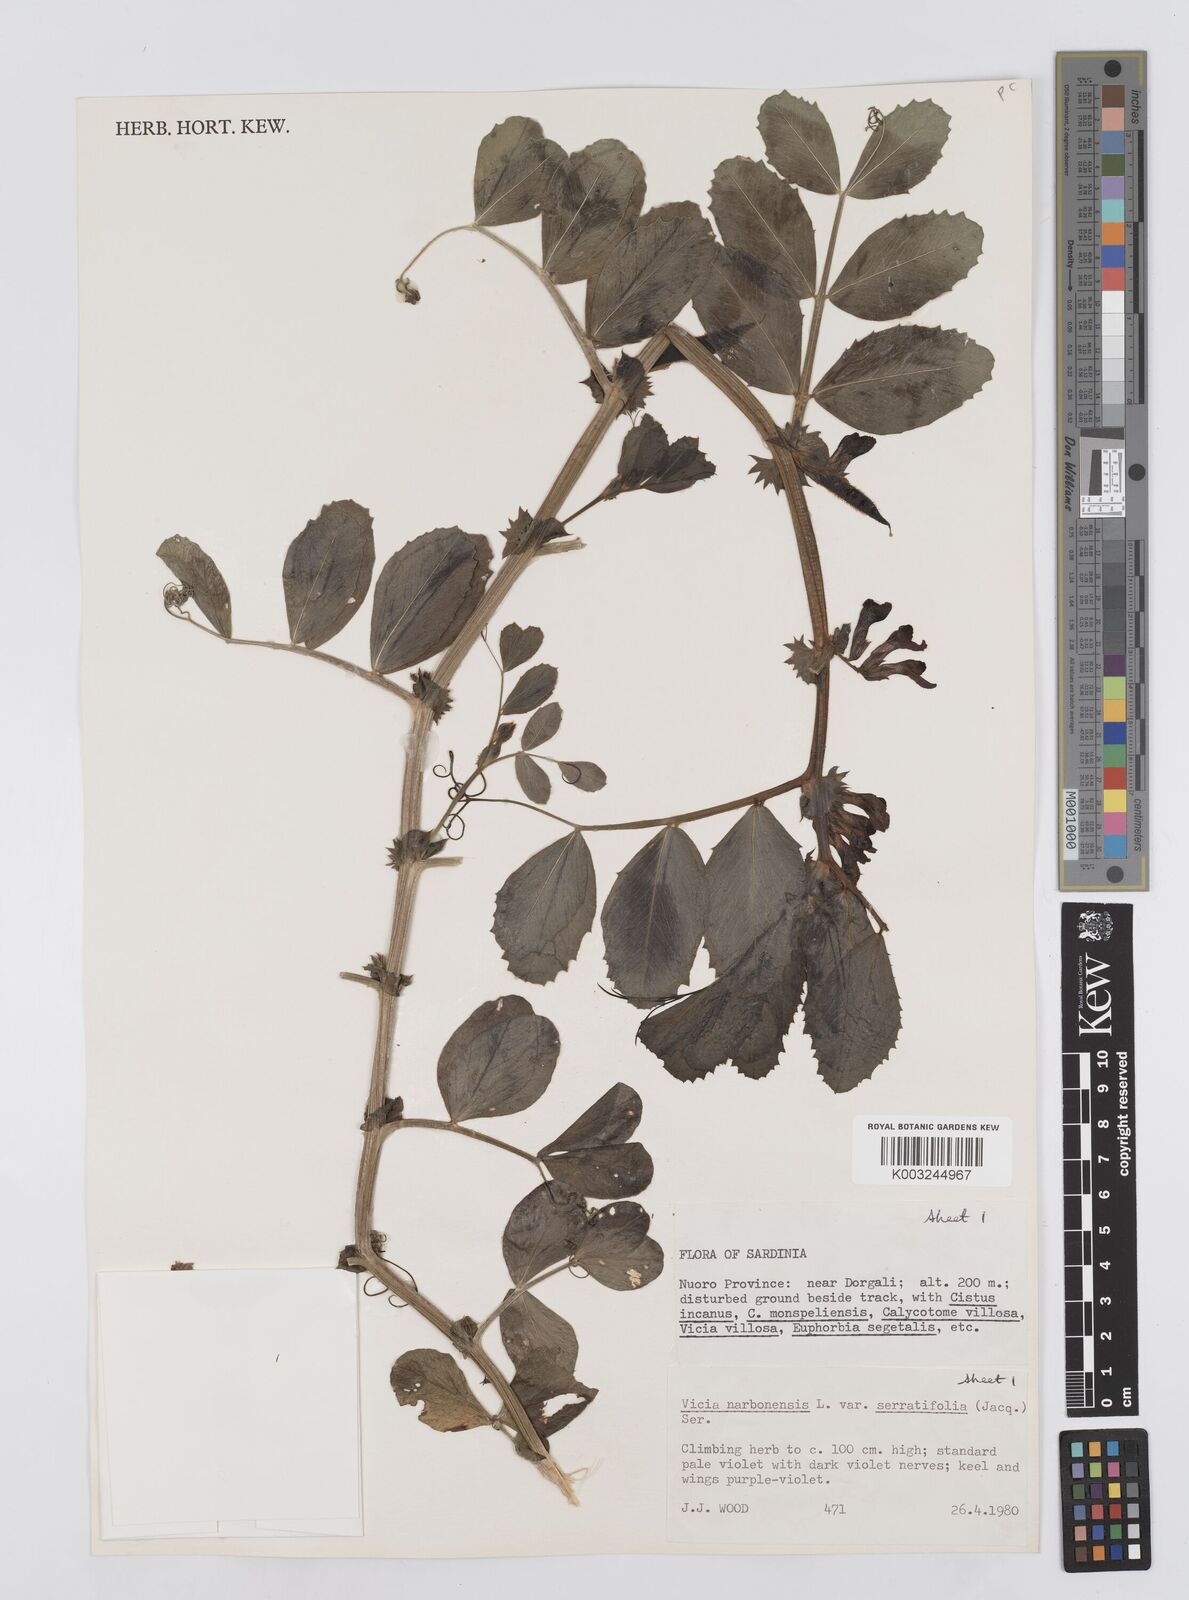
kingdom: Plantae
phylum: Tracheophyta
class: Magnoliopsida
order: Fabales
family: Fabaceae
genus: Vicia
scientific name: Vicia serratifolia
